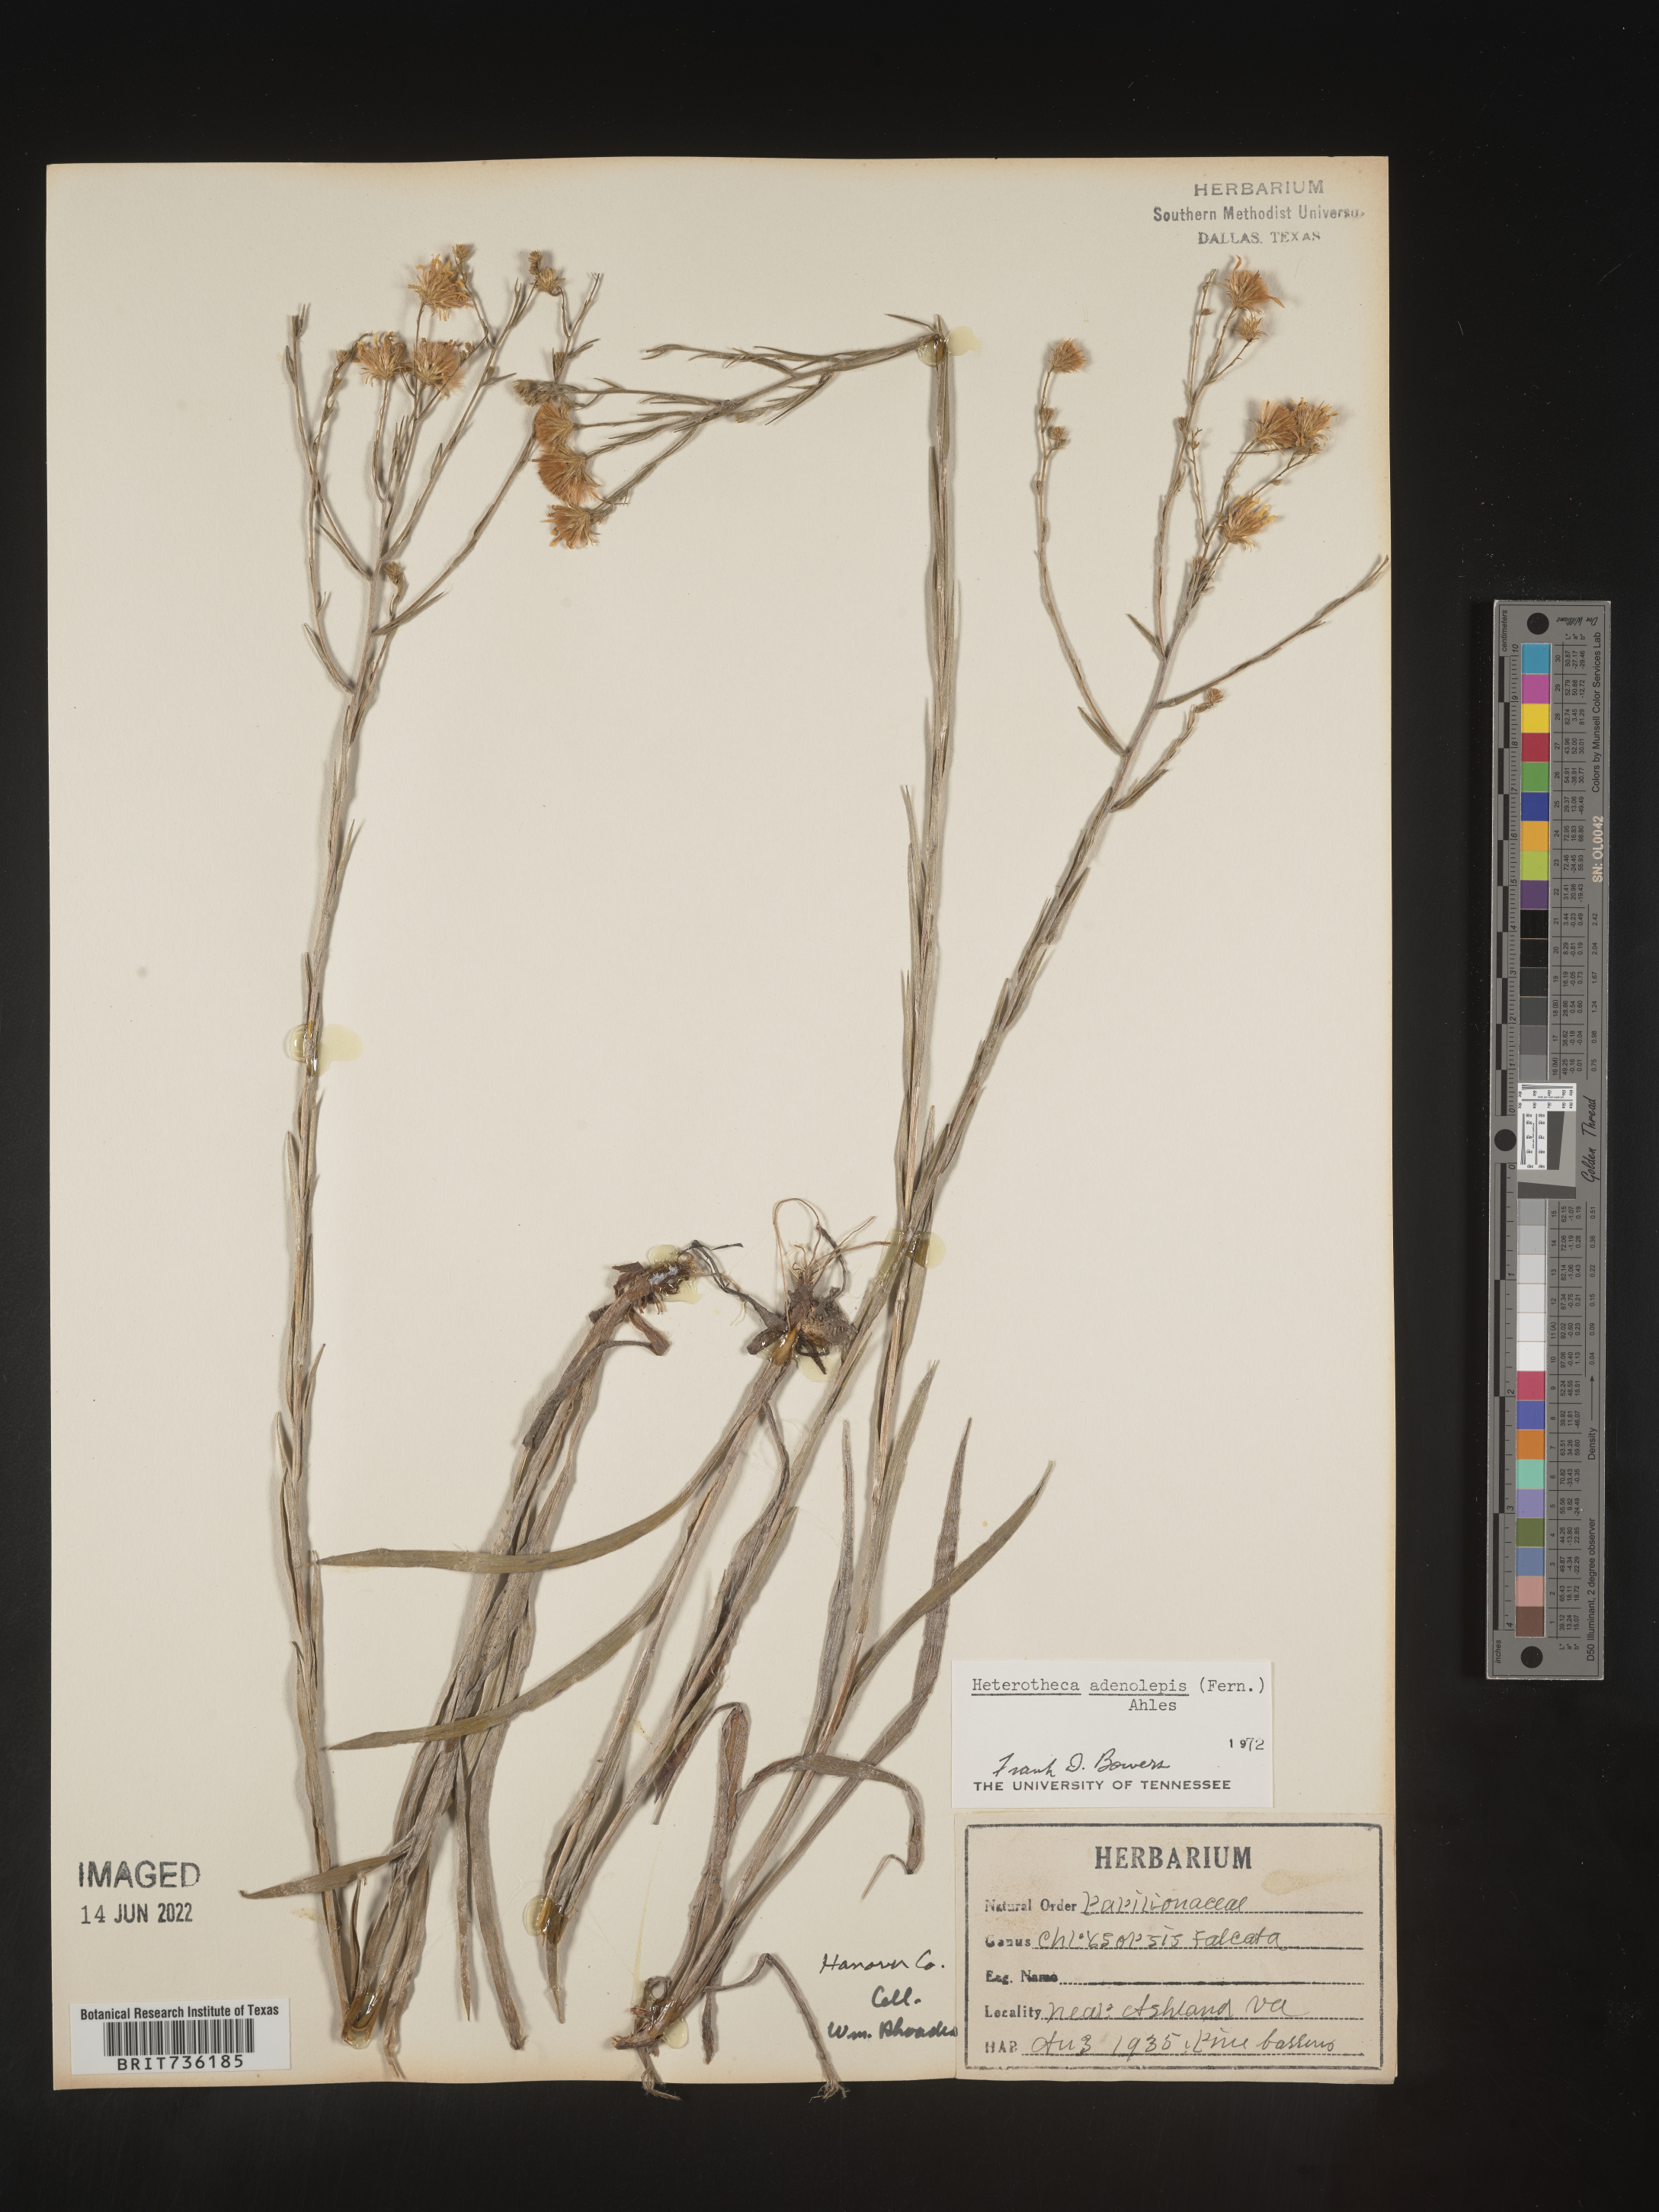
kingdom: Plantae
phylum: Tracheophyta
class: Magnoliopsida
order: Asterales
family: Asteraceae
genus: Pityopsis
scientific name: Pityopsis aspera
